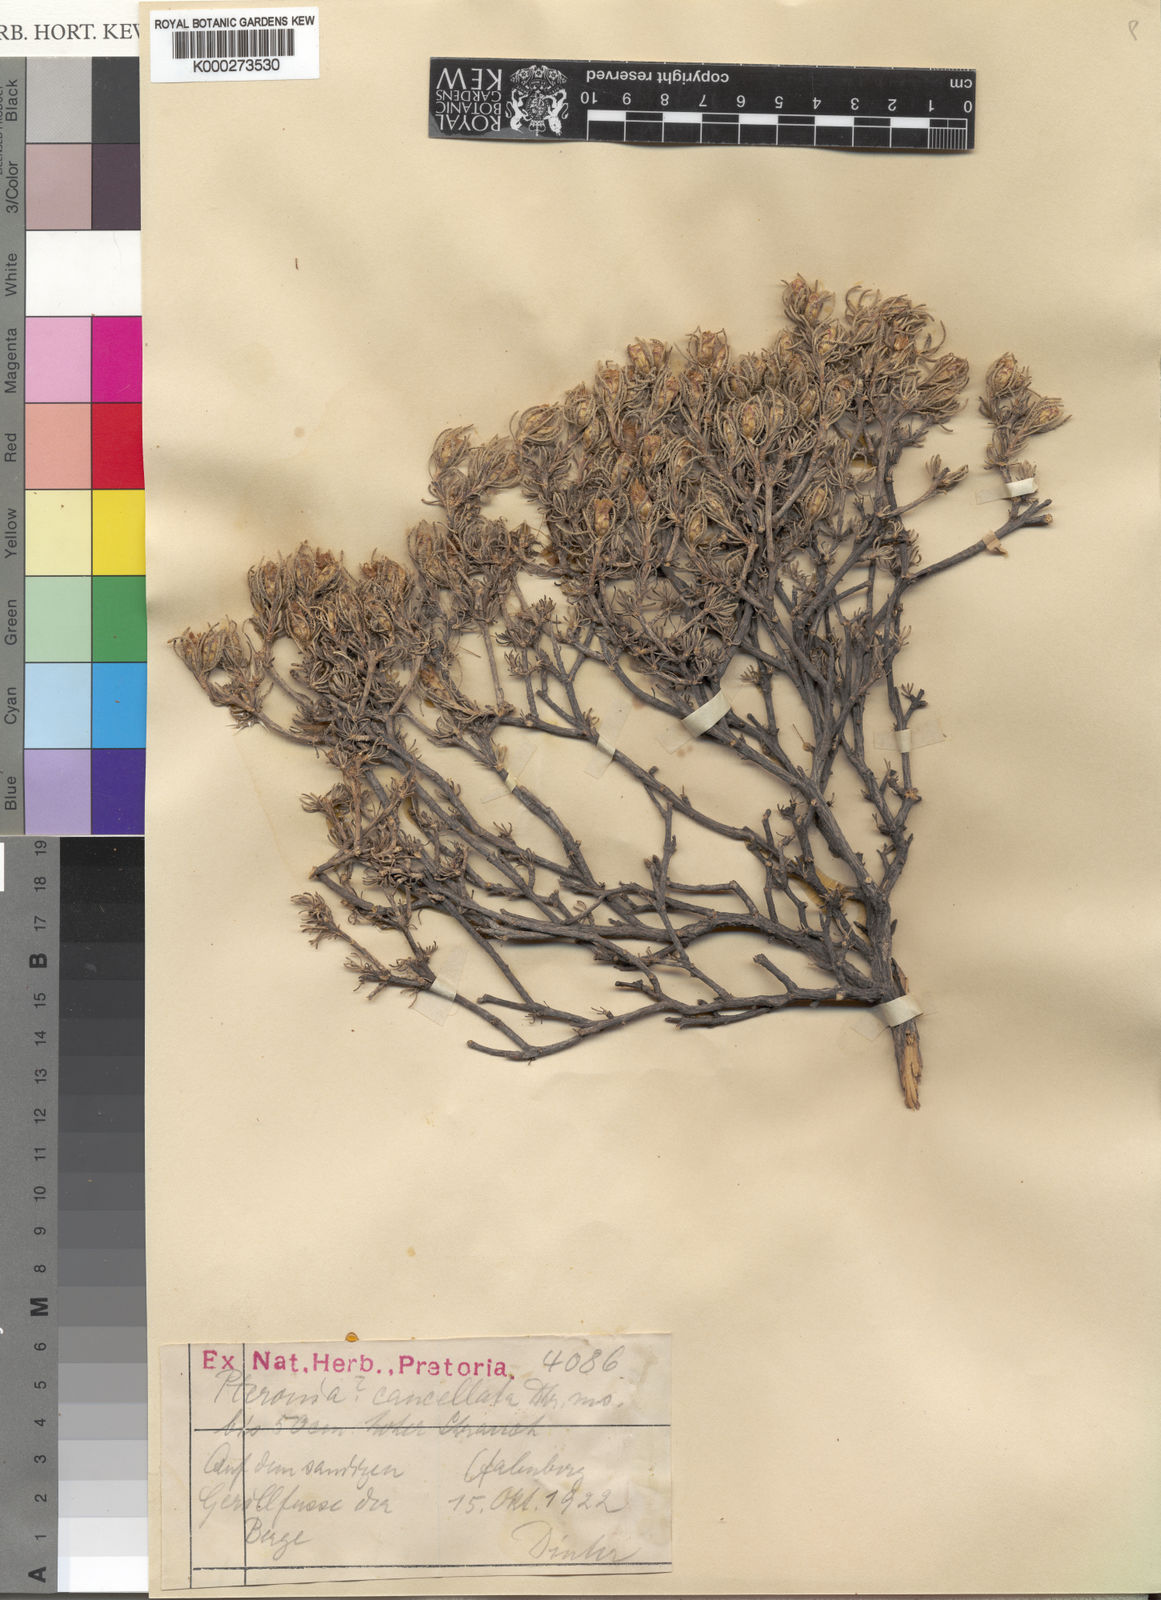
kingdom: Plantae
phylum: Tracheophyta
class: Magnoliopsida
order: Asterales
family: Asteraceae
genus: Pteronia
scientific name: Pteronia pomonae
